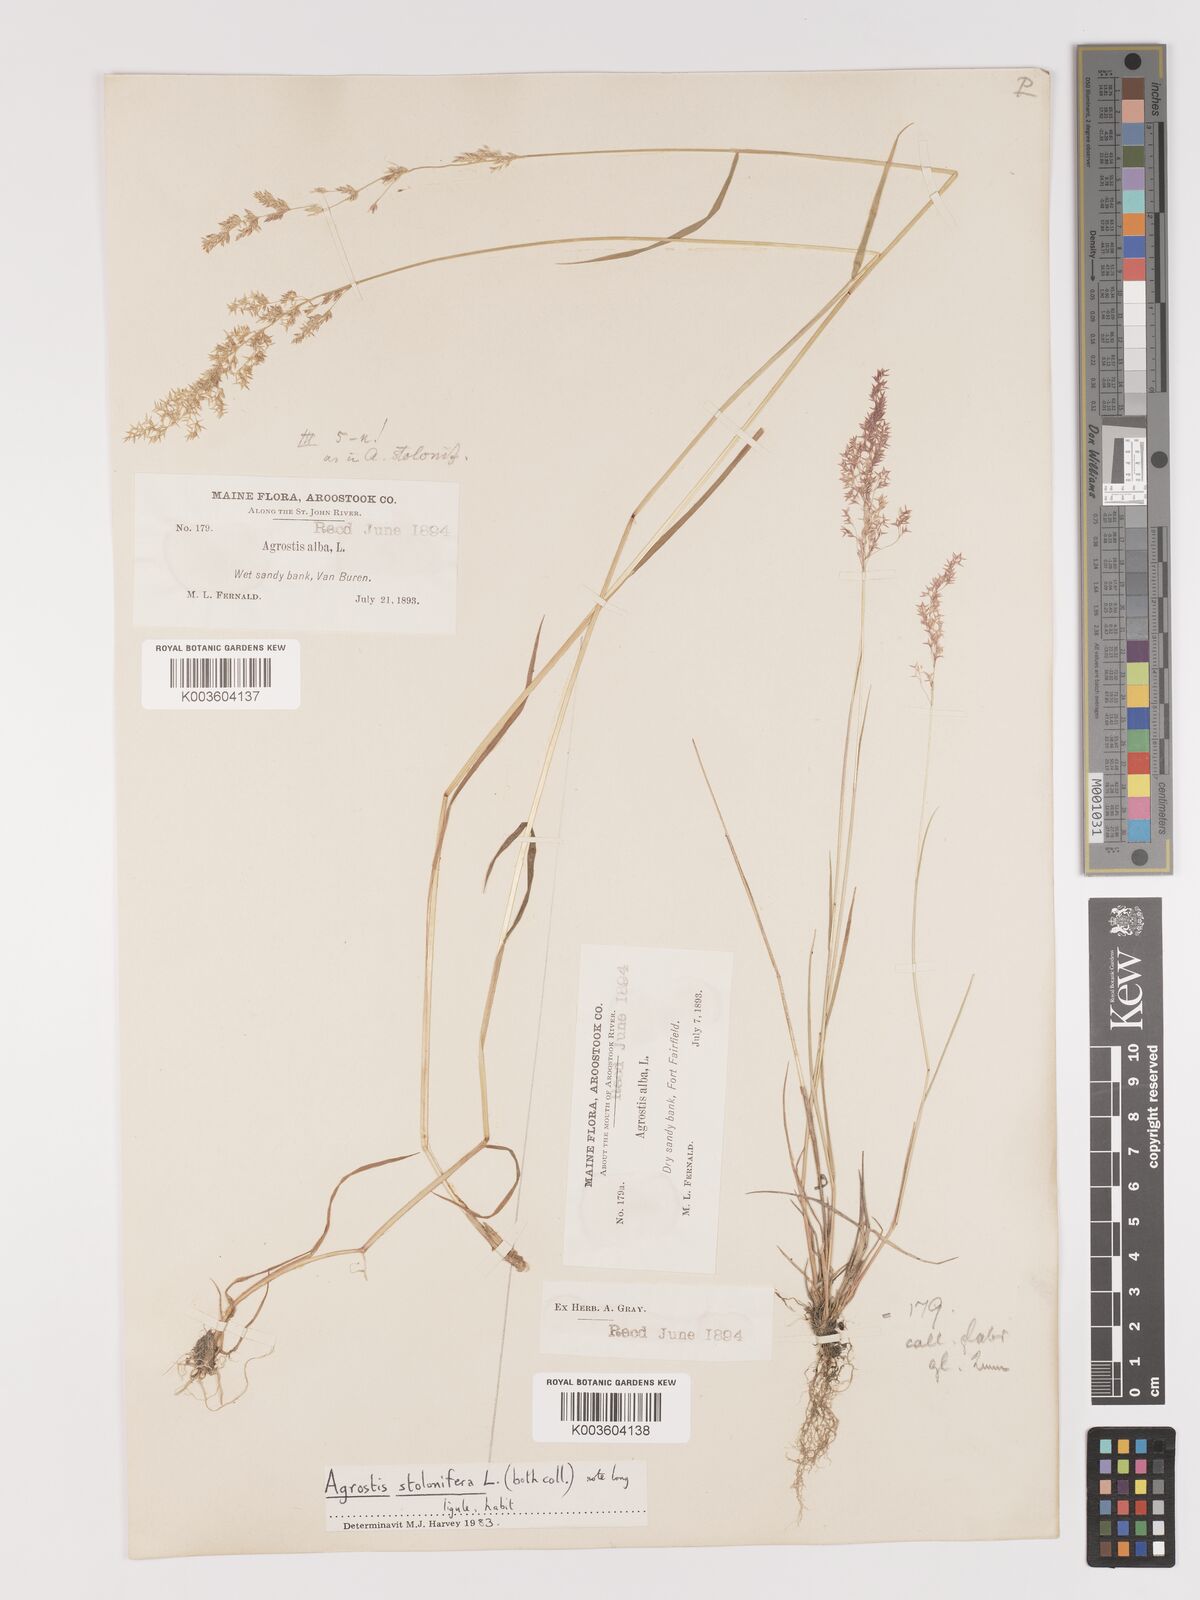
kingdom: Plantae
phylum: Tracheophyta
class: Liliopsida
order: Poales
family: Poaceae
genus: Agrostis
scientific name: Agrostis capillaris
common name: Colonial bentgrass
